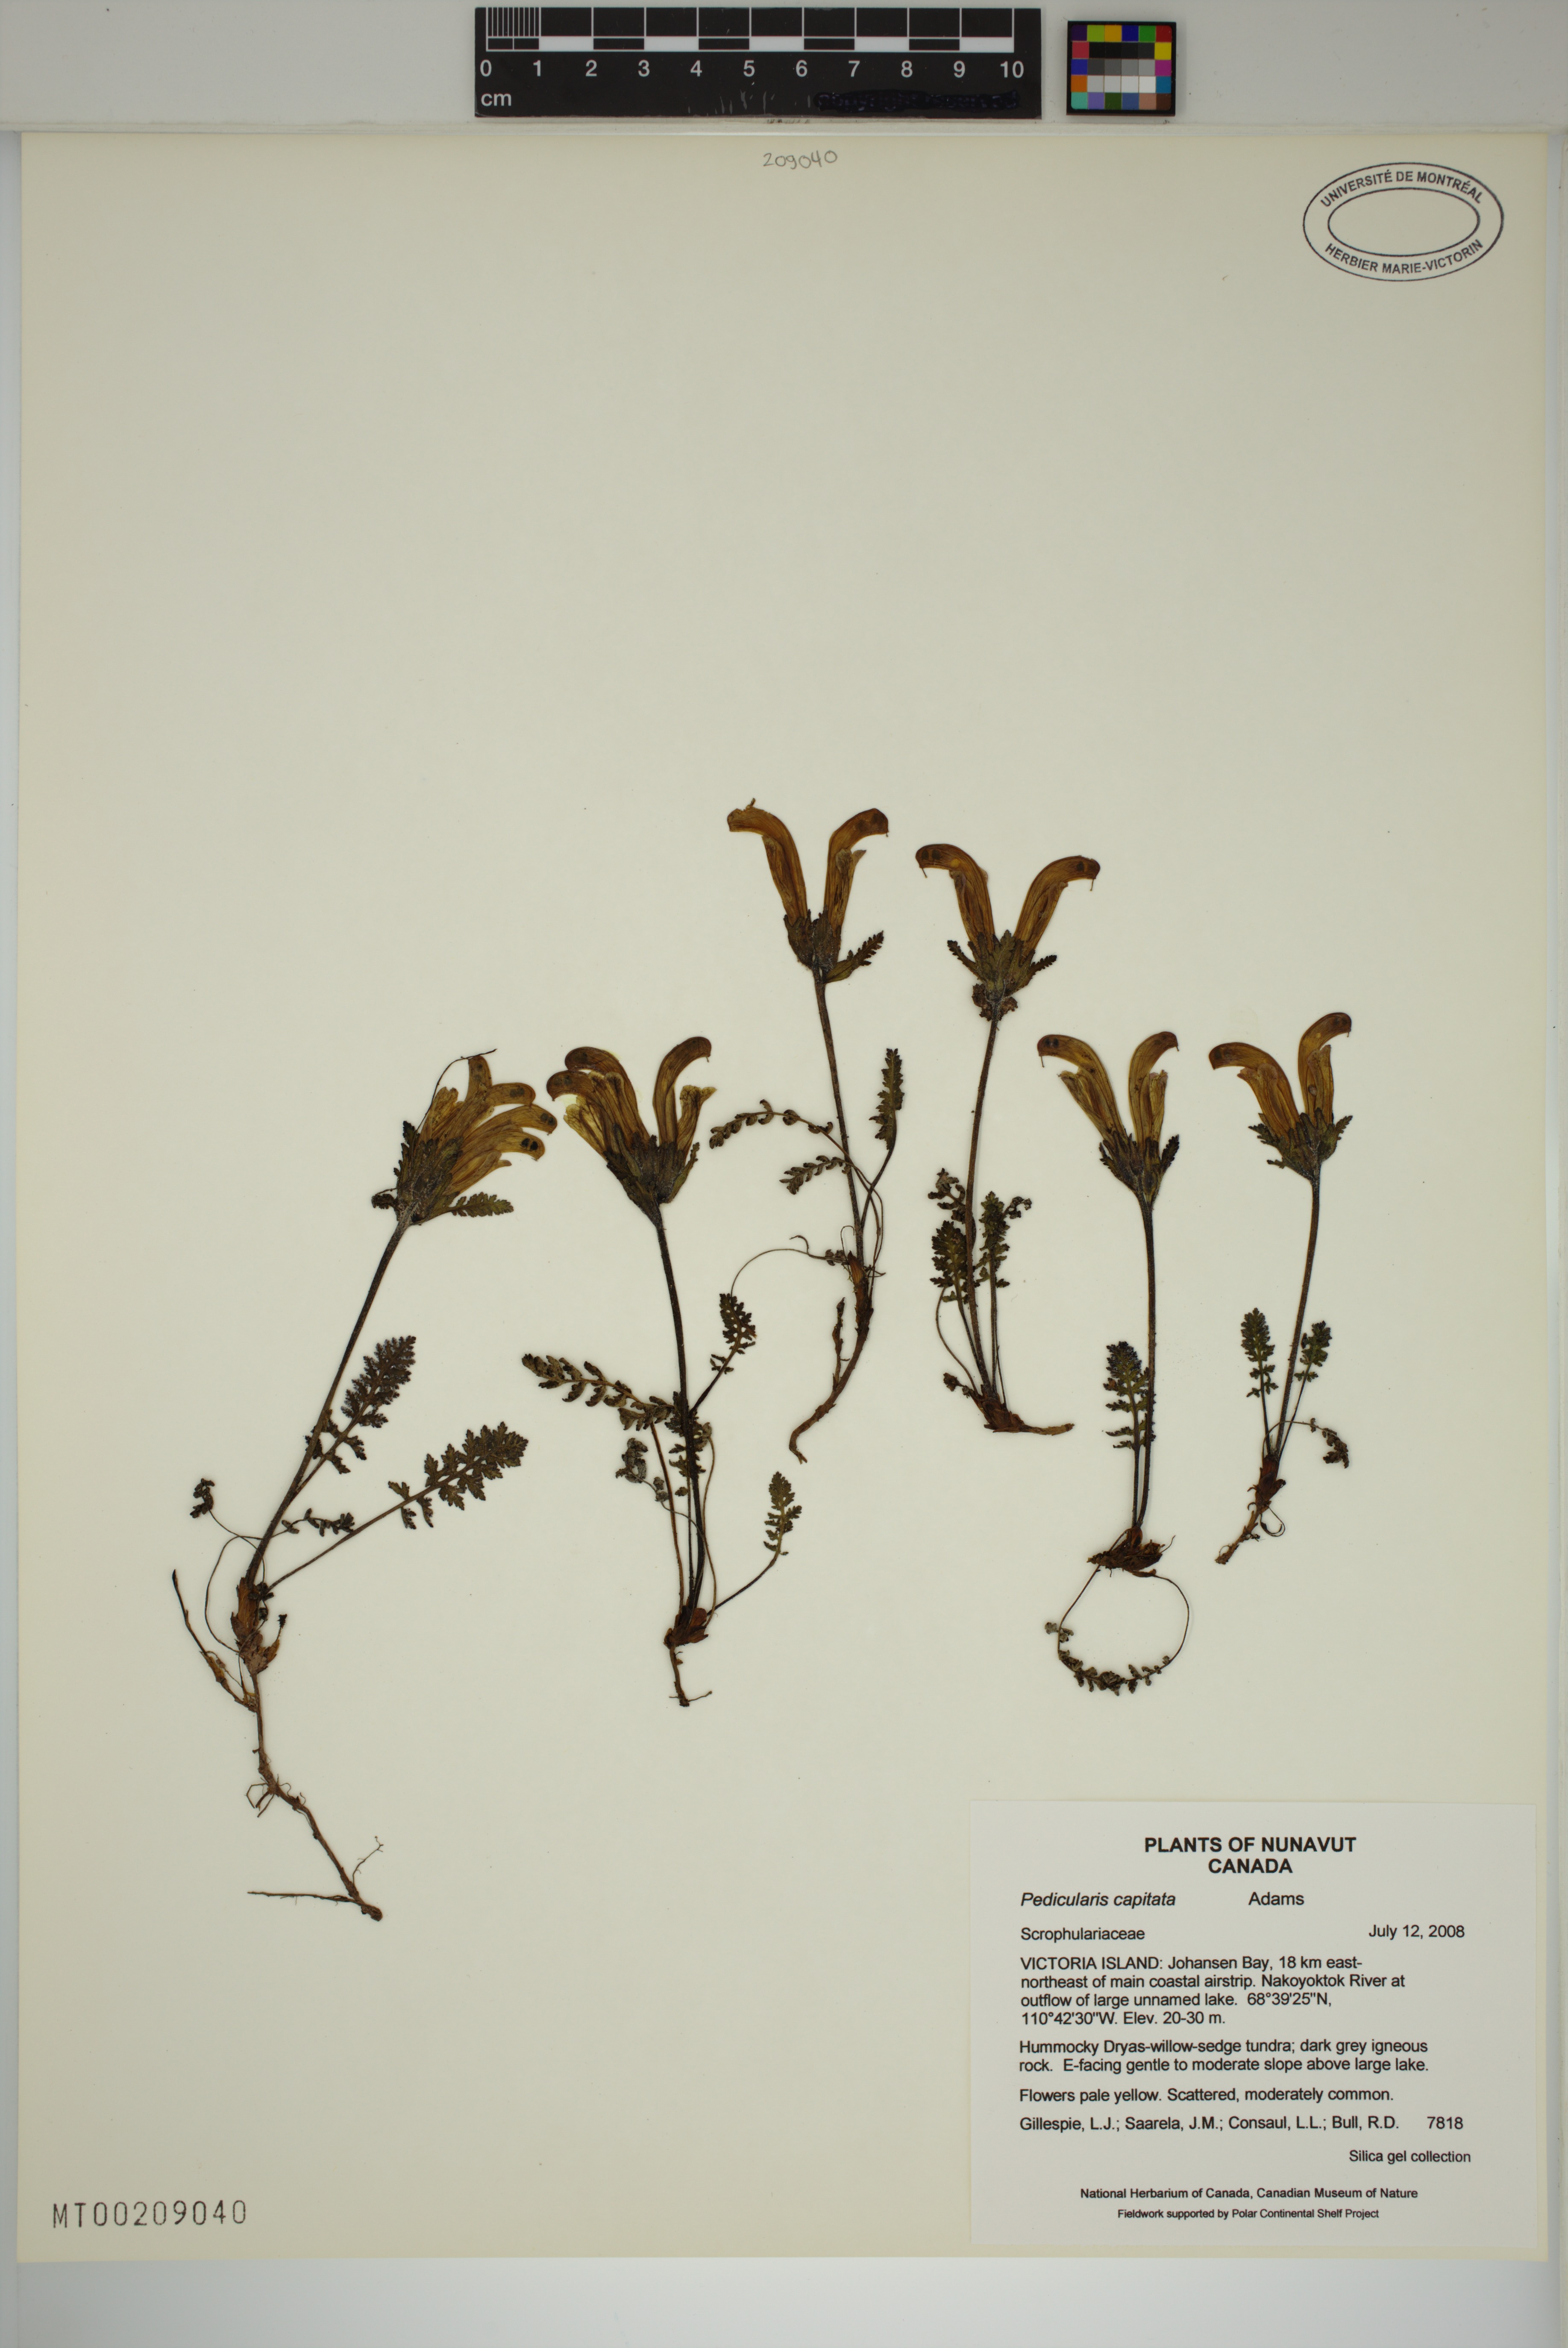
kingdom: Plantae
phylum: Tracheophyta
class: Magnoliopsida
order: Lamiales
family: Orobanchaceae
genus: Pedicularis
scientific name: Pedicularis capitata
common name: Capitate lousewort
